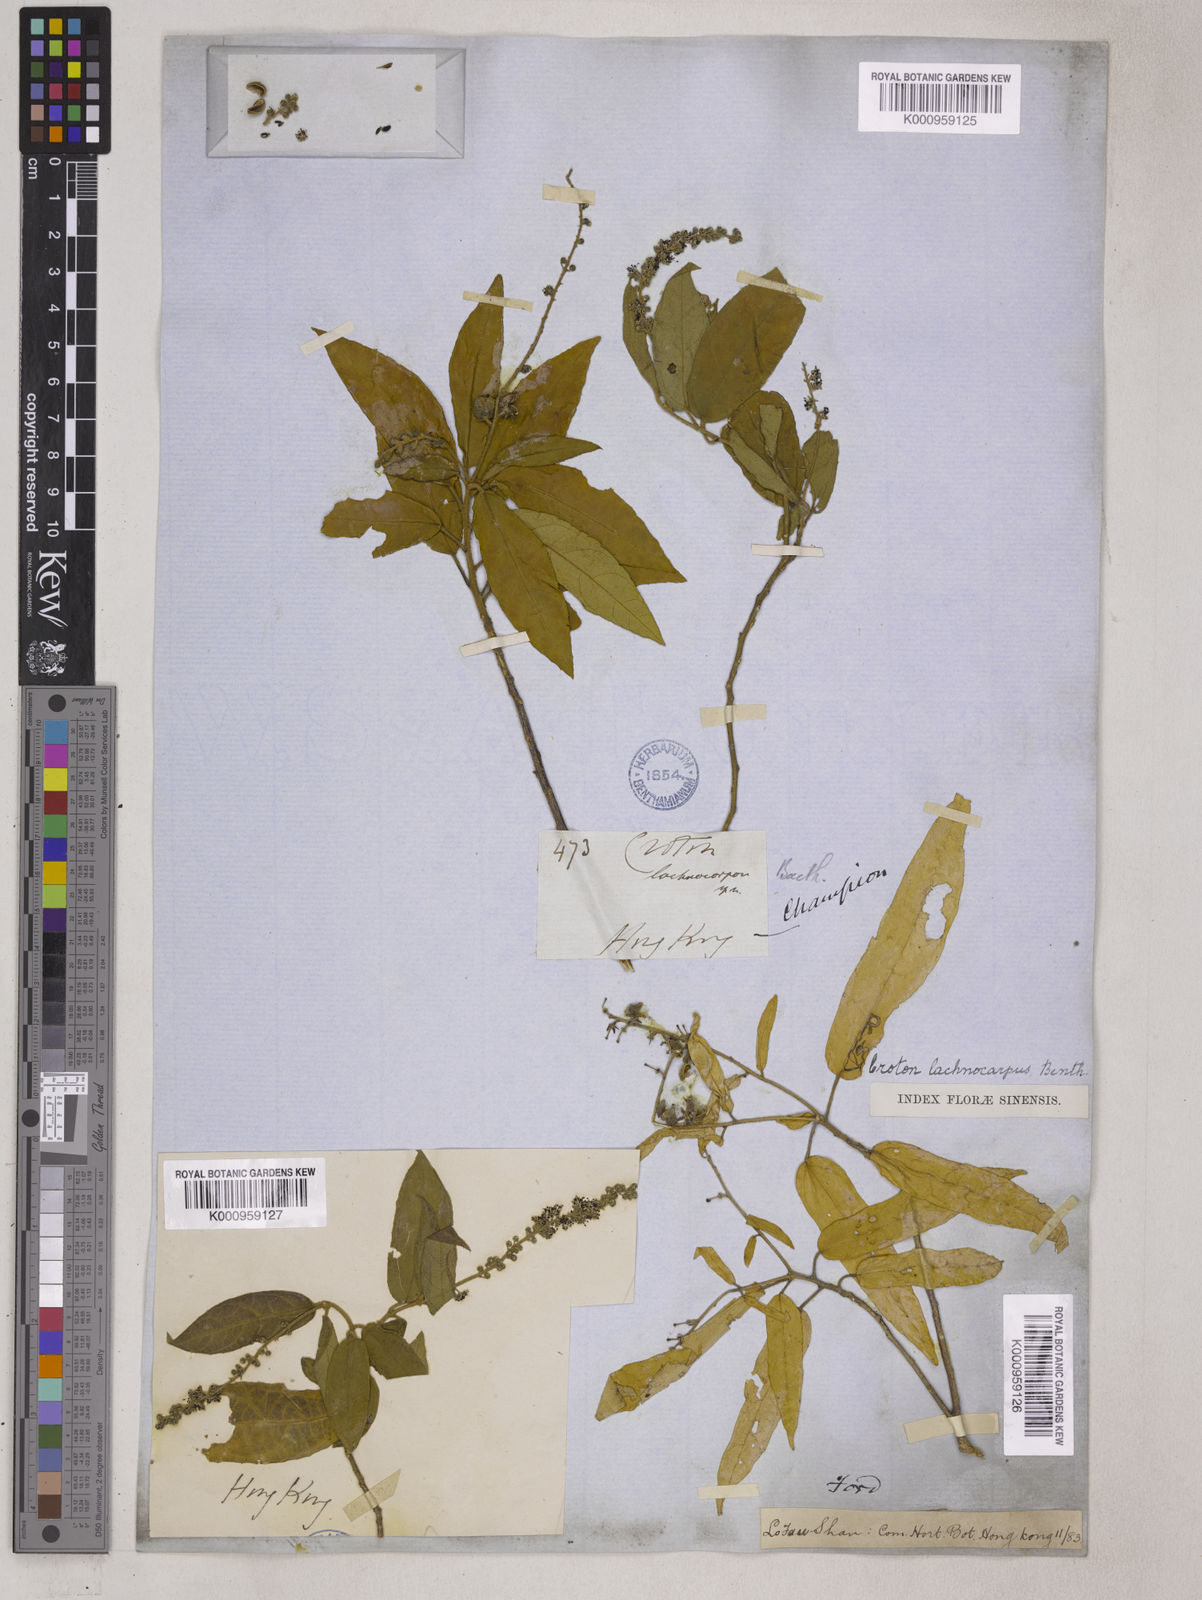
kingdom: Plantae
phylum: Tracheophyta
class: Magnoliopsida
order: Malpighiales
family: Euphorbiaceae
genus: Croton
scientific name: Croton lachnocarpus
